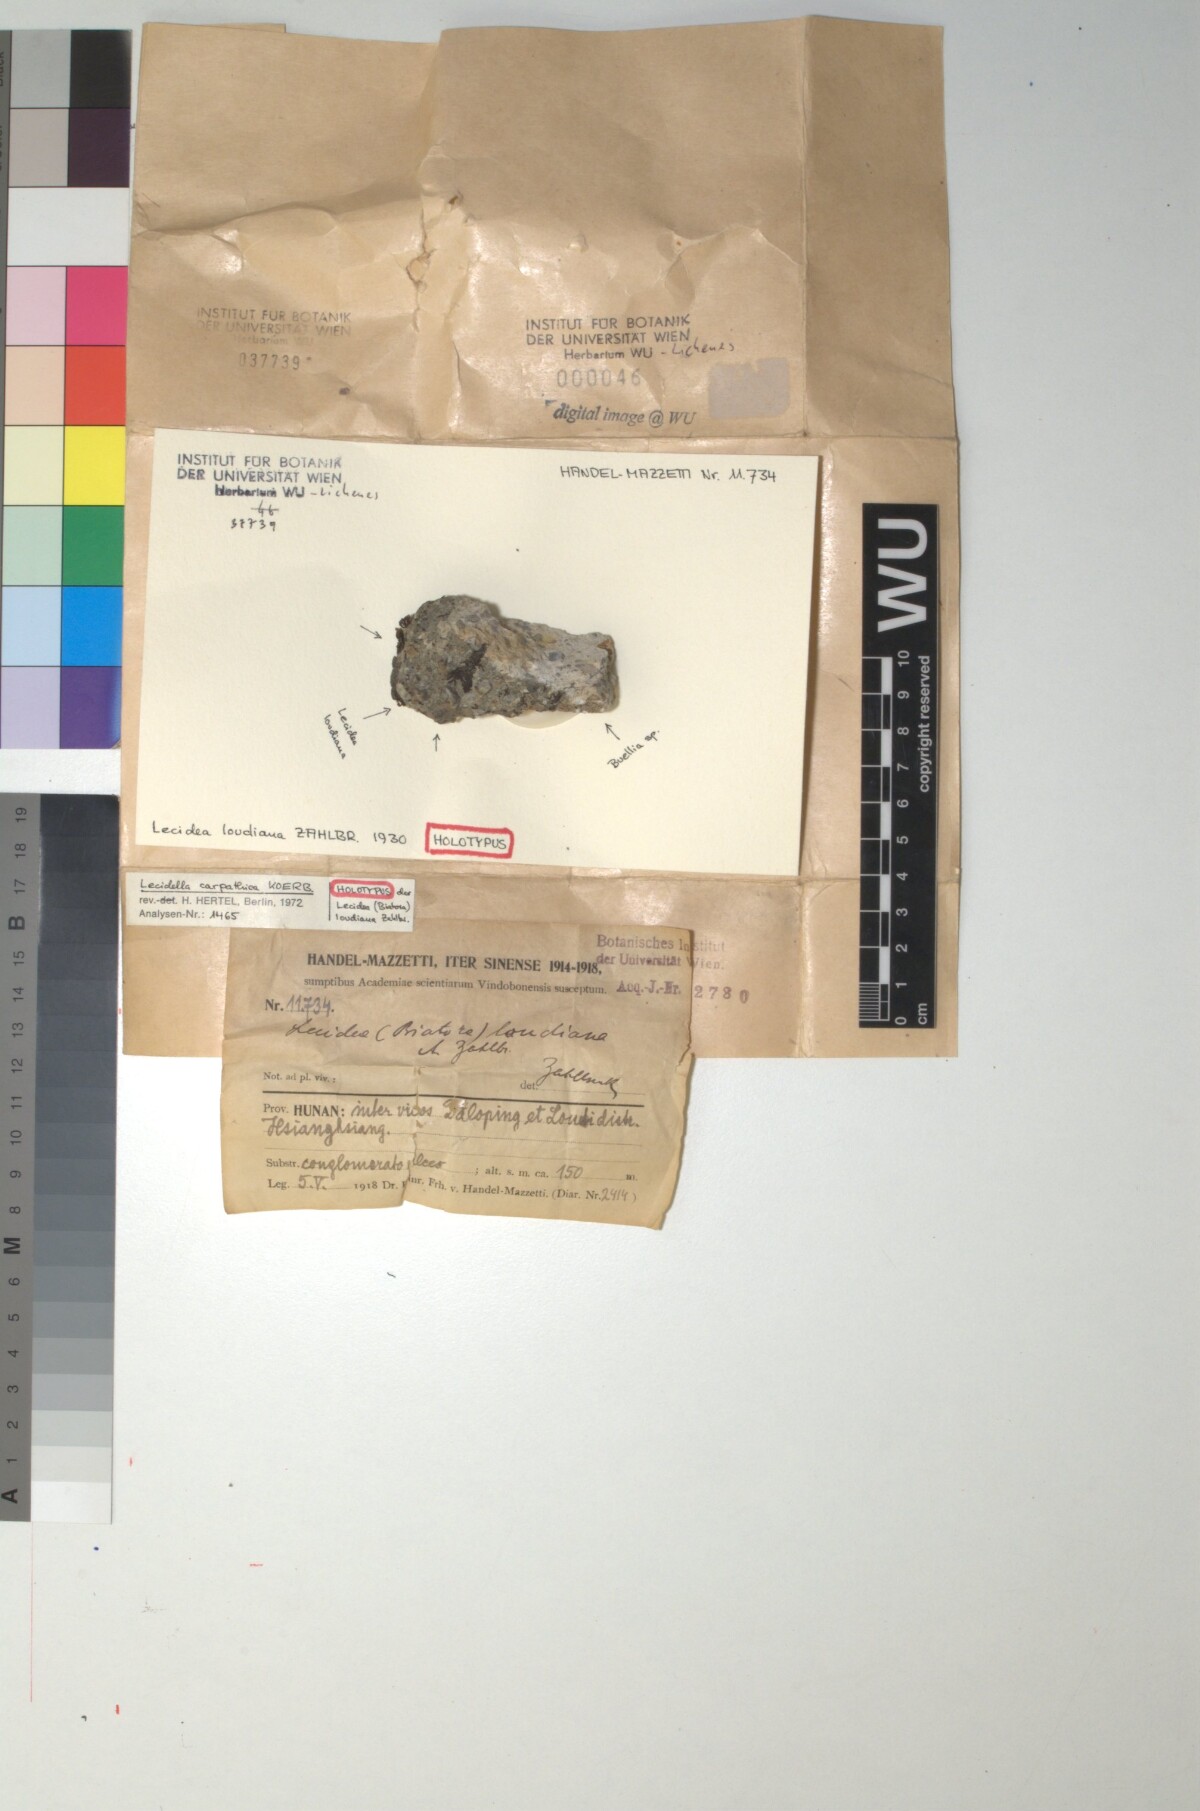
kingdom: Fungi
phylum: Ascomycota
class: Lecanoromycetes
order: Lecanorales
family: Lecanoraceae
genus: Lecidella
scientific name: Lecidella carpathica
